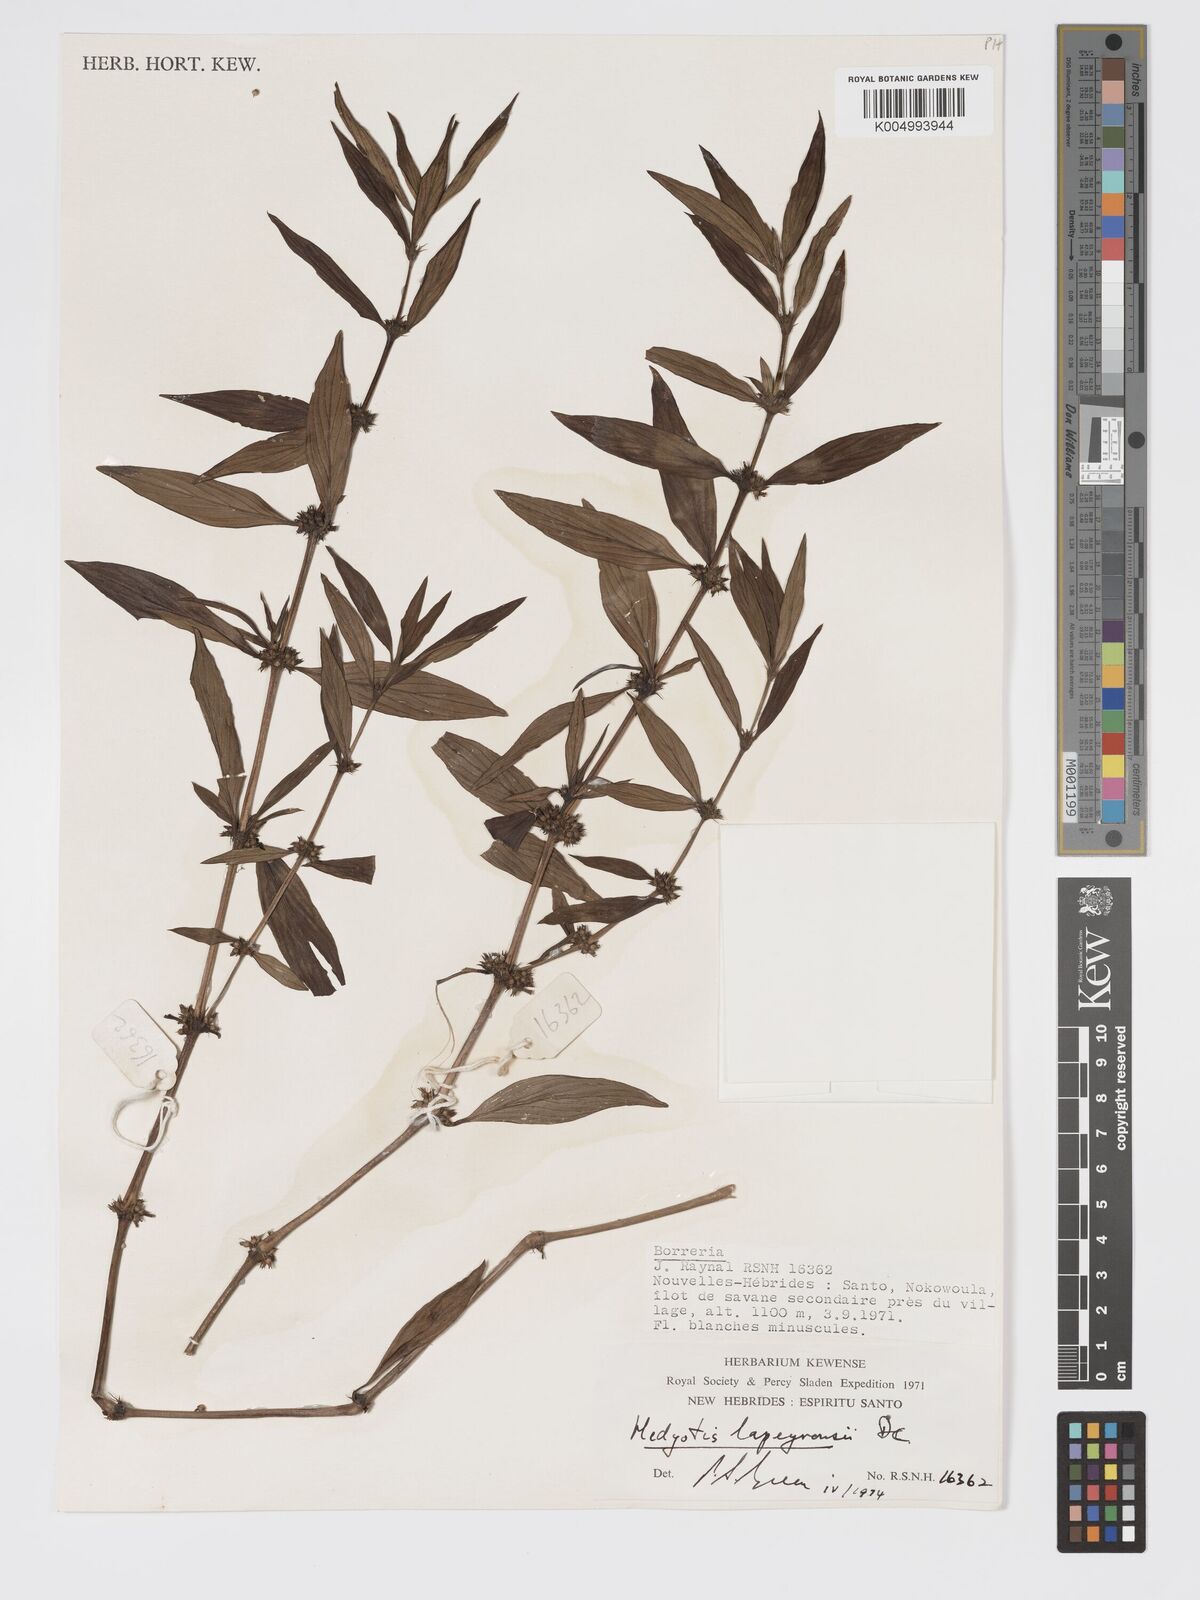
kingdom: Plantae
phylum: Tracheophyta
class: Magnoliopsida
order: Gentianales
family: Rubiaceae
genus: Exallage
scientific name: Exallage lapeyrousei
